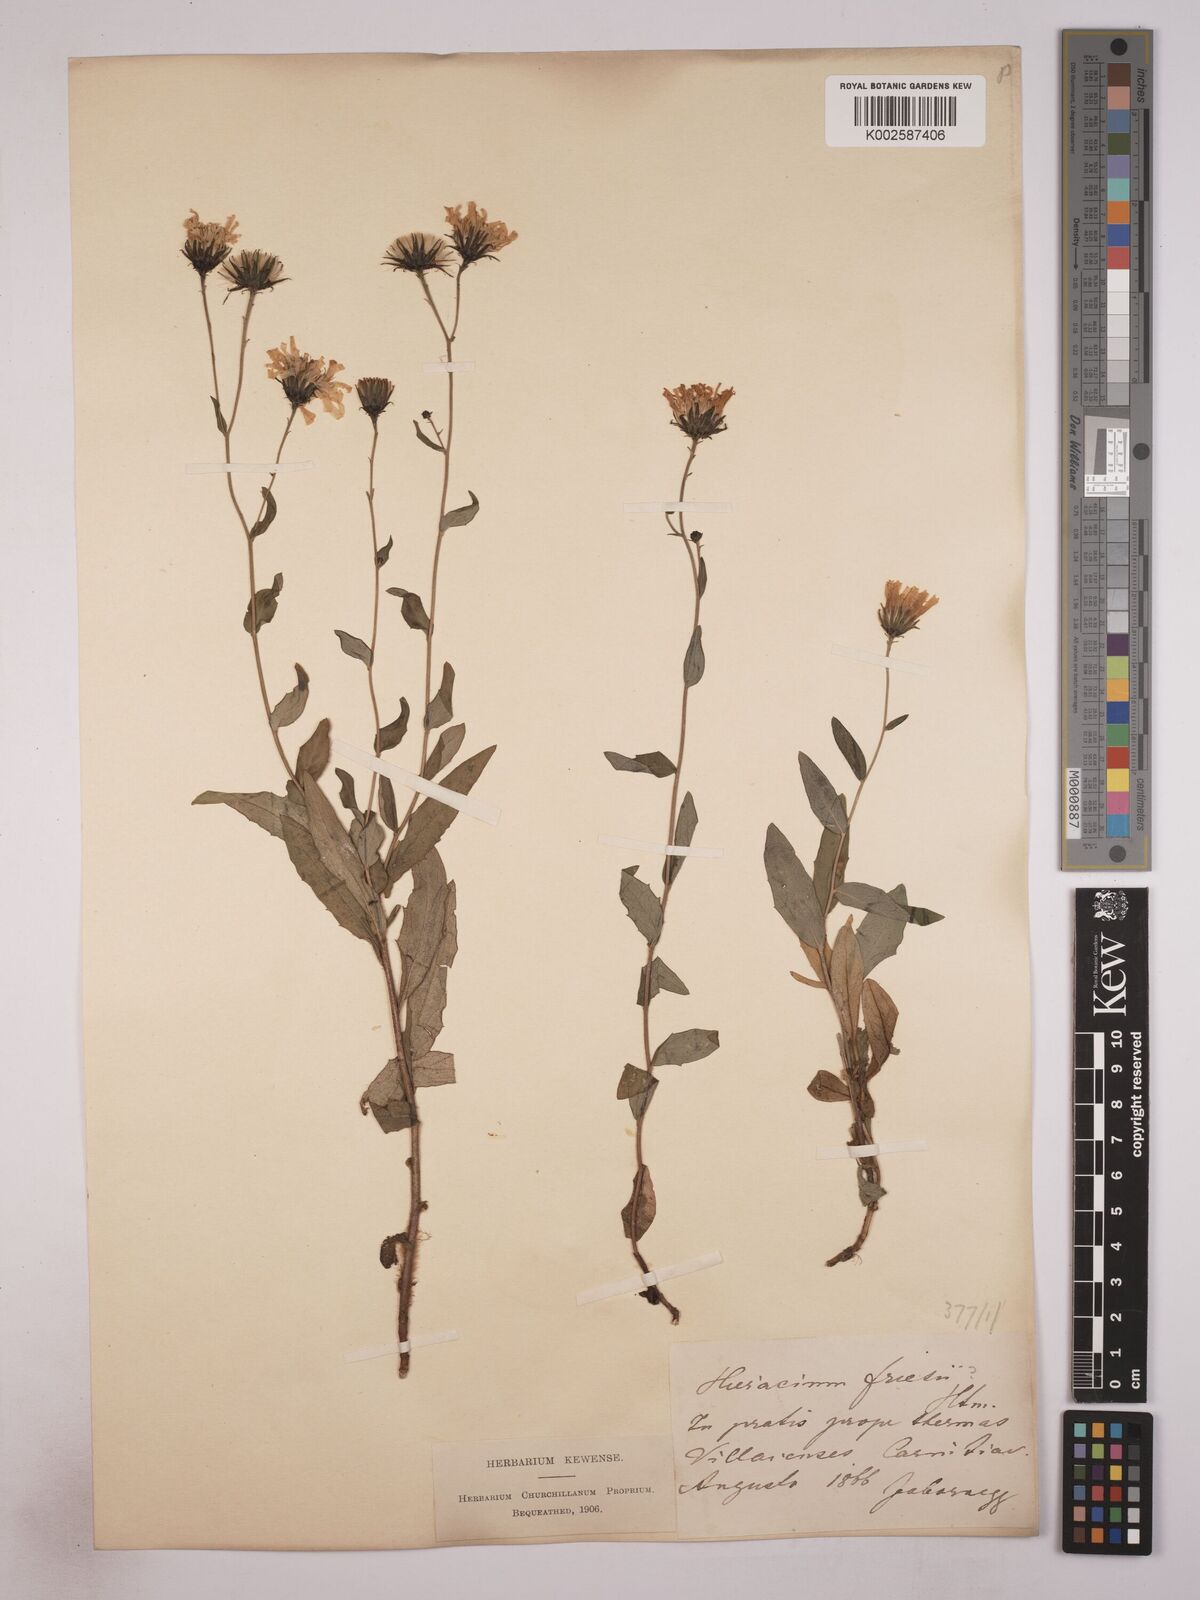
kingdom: Plantae
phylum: Tracheophyta
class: Magnoliopsida
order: Asterales
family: Asteraceae
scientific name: Asteraceae
